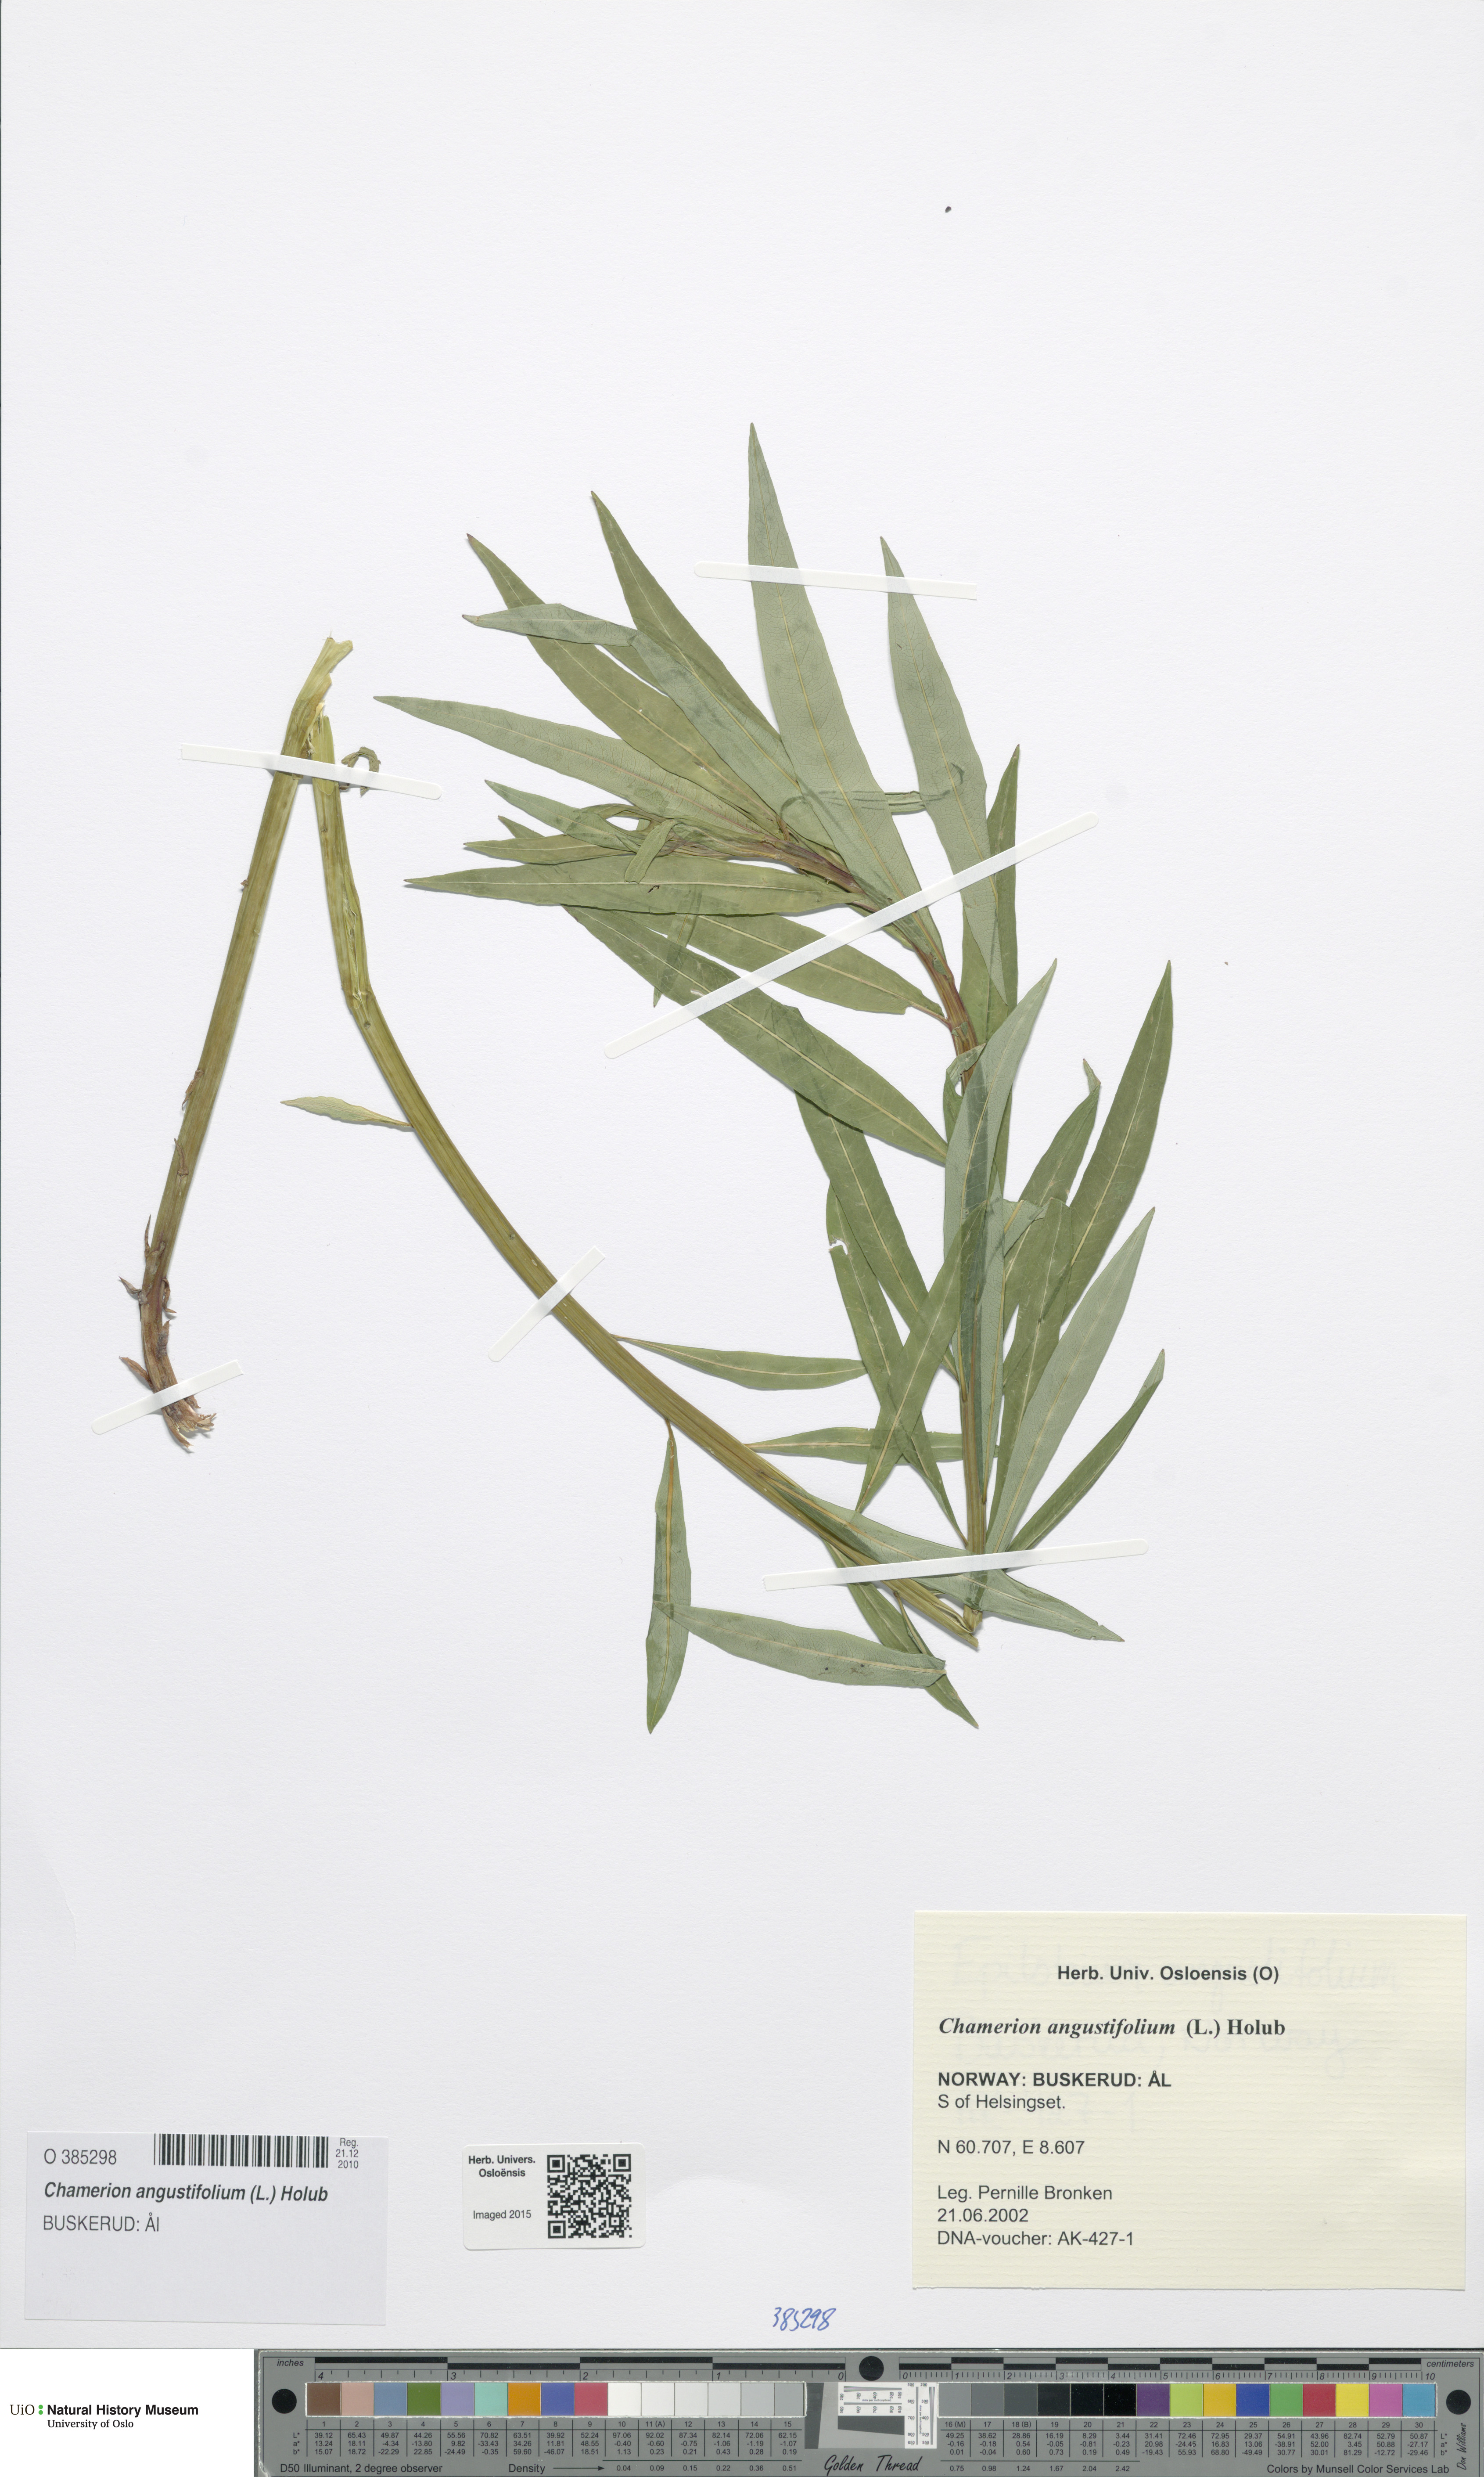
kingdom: Plantae
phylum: Tracheophyta
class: Magnoliopsida
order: Myrtales
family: Onagraceae
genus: Chamaenerion
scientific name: Chamaenerion angustifolium
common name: Fireweed
